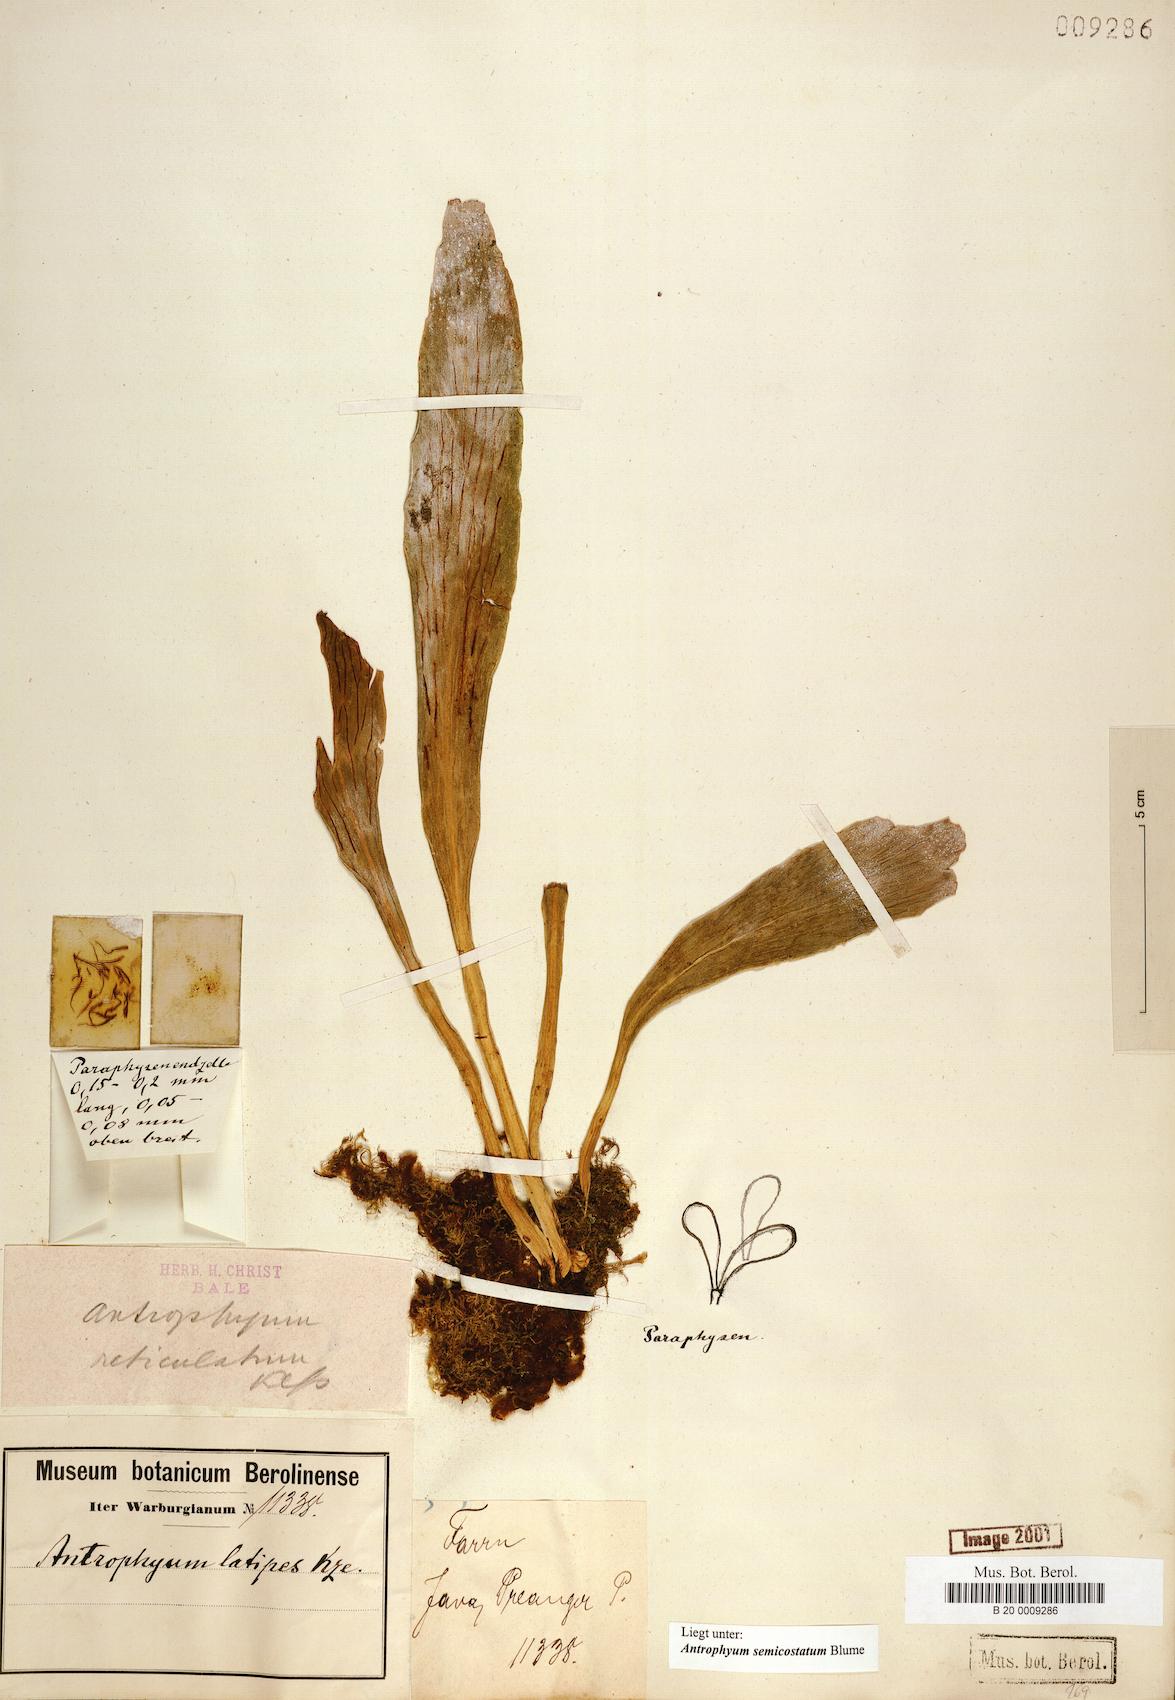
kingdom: Plantae
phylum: Tracheophyta
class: Polypodiopsida
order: Polypodiales
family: Pteridaceae
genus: Antrophyum
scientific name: Antrophyum semicostatum
